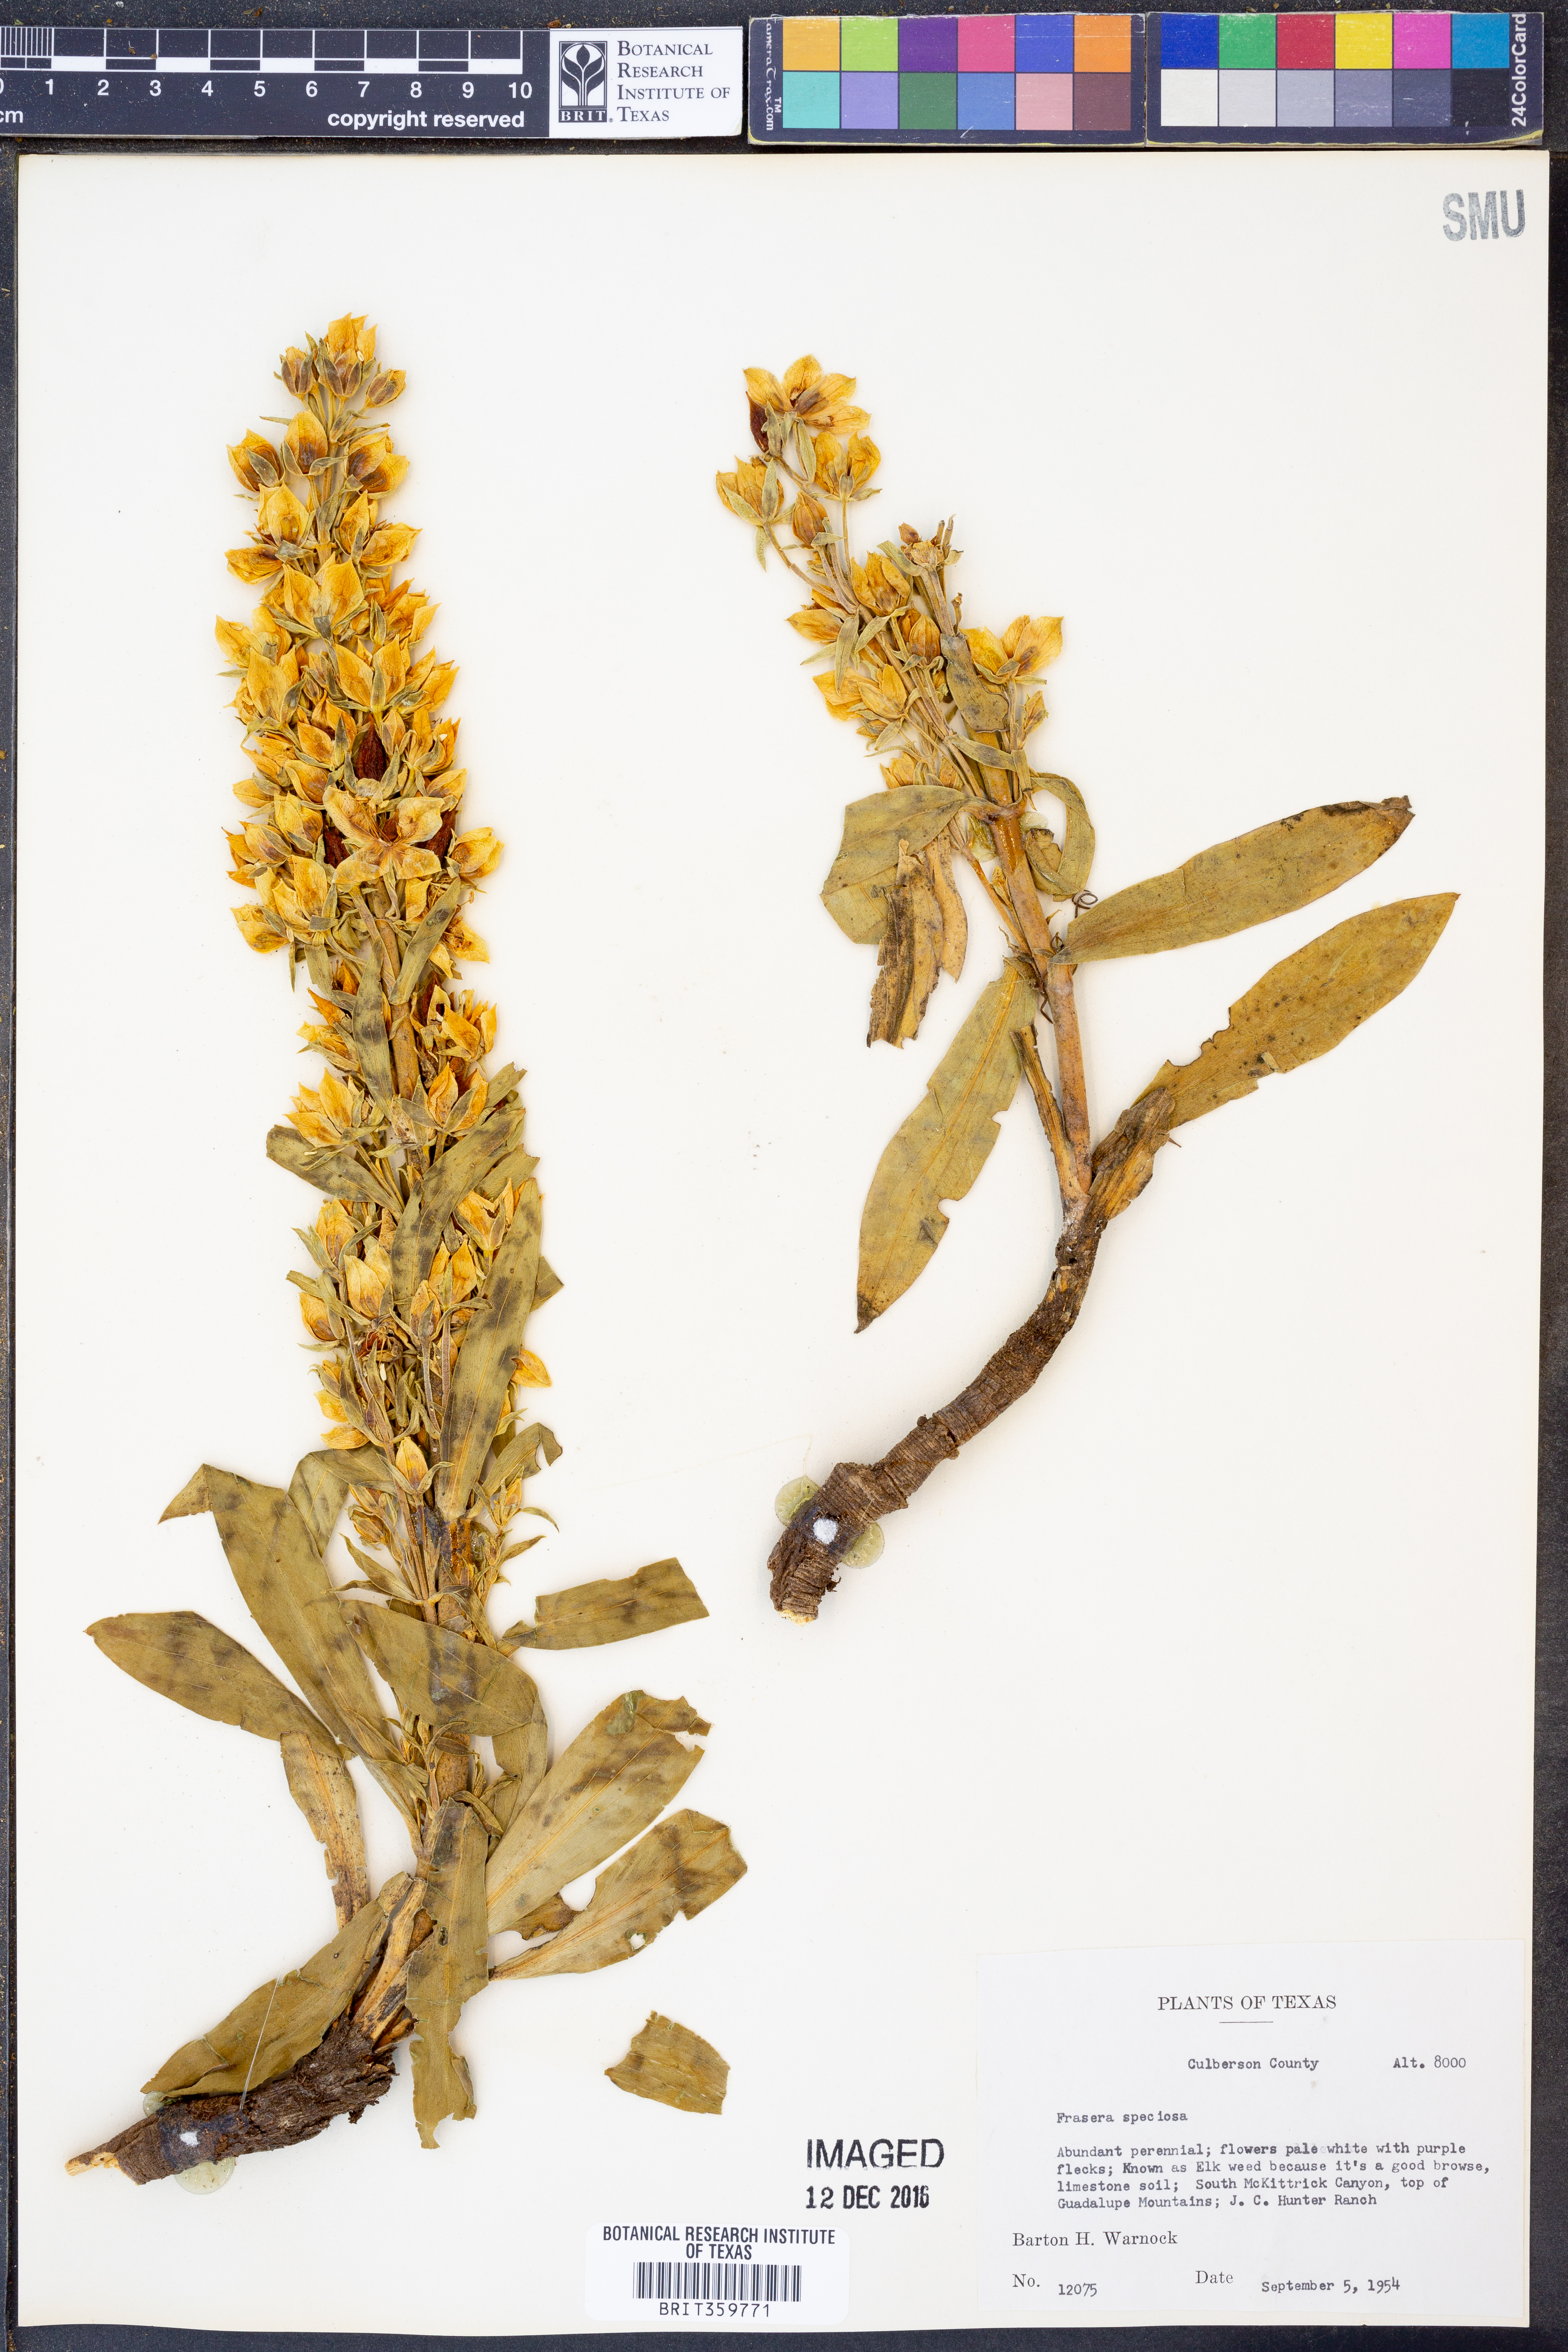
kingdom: Plantae
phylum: Tracheophyta
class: Magnoliopsida
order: Gentianales
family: Gentianaceae
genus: Frasera
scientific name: Frasera speciosa
